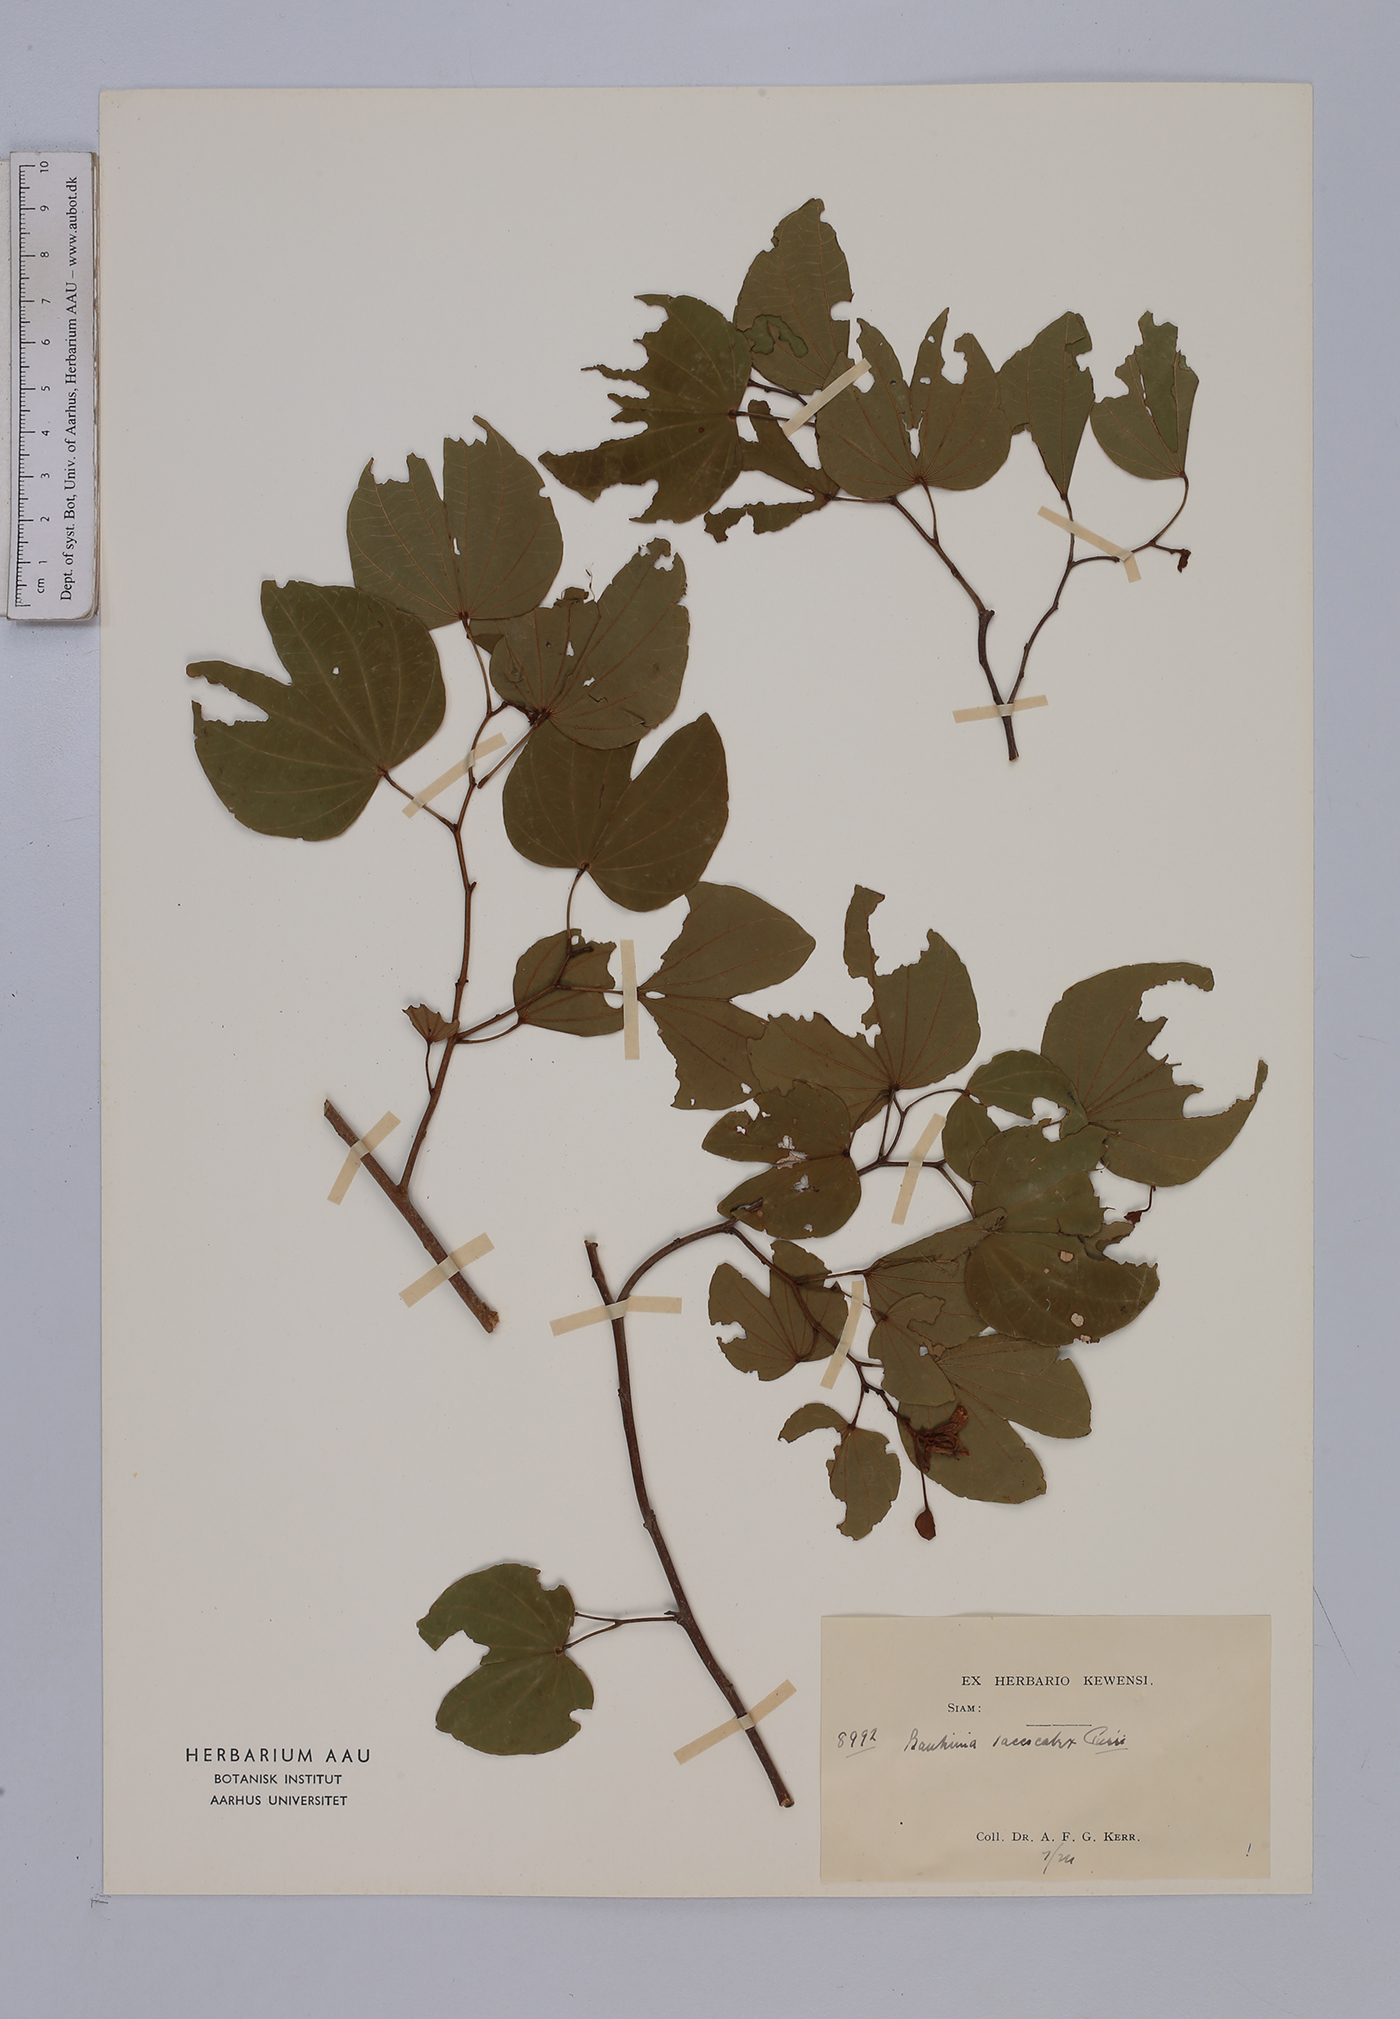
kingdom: Plantae
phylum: Tracheophyta
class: Magnoliopsida
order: Fabales
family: Fabaceae
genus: Bauhinia
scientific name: Bauhinia saccocalyx
